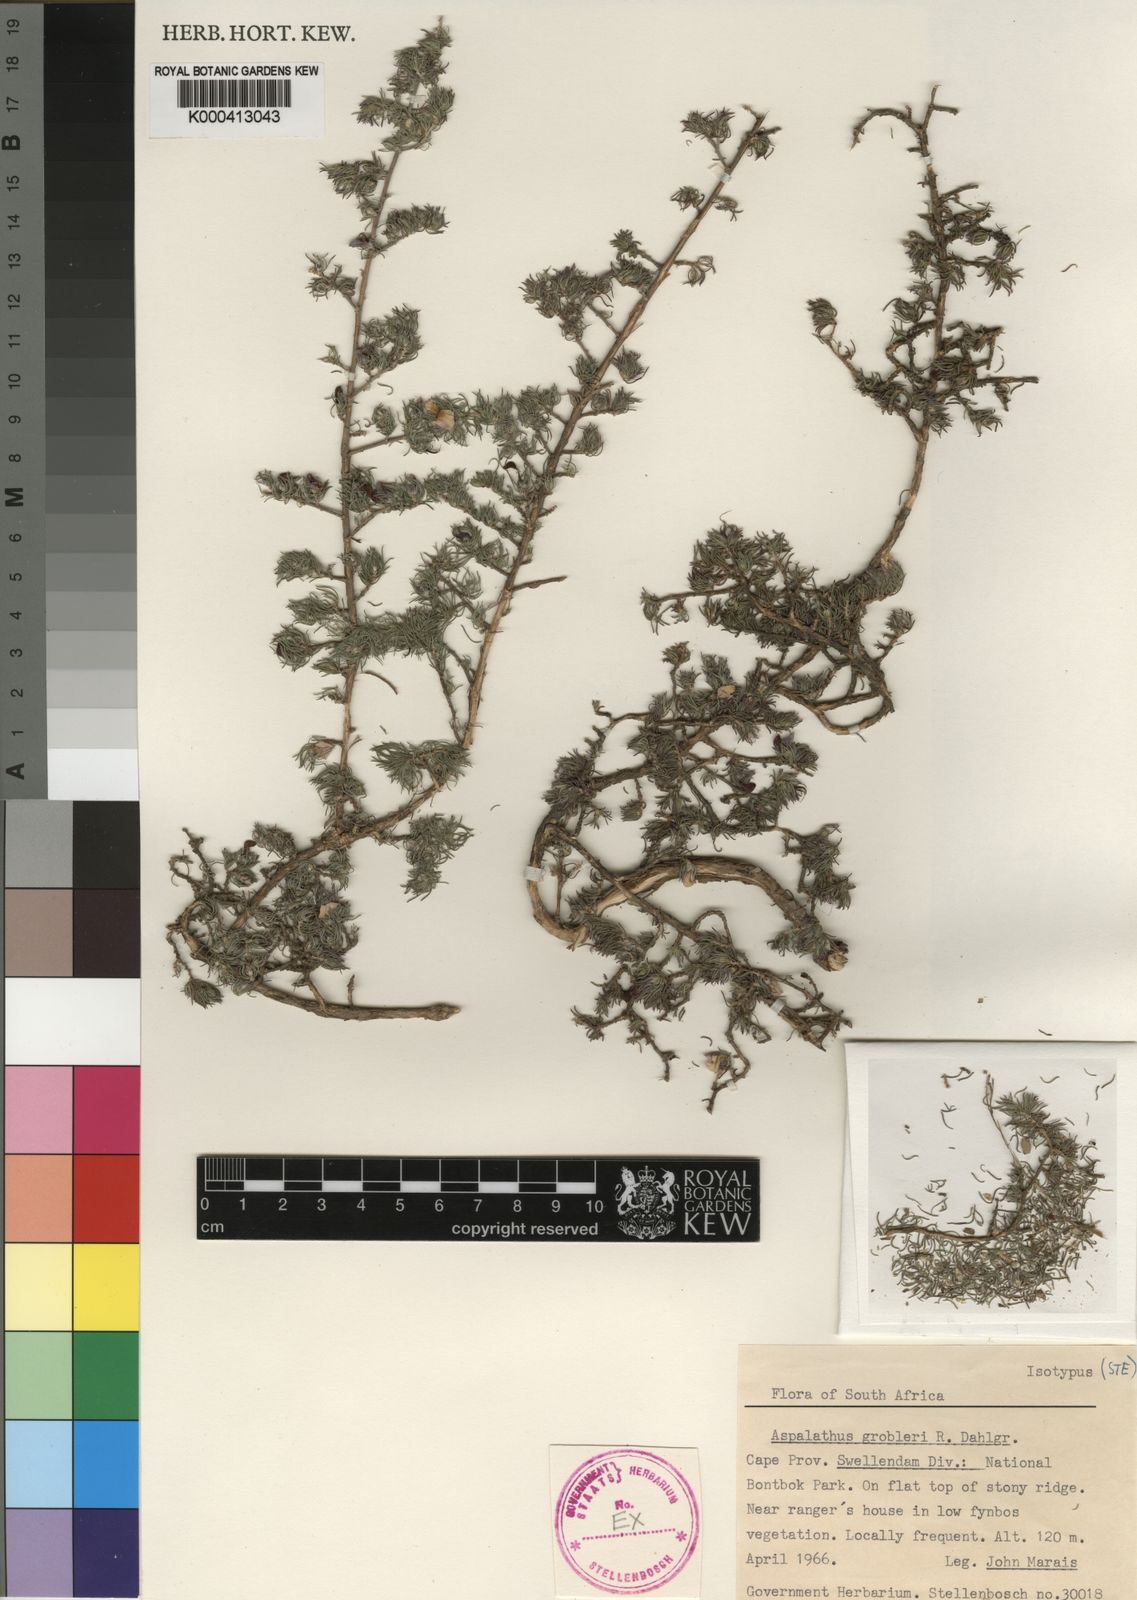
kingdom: Plantae
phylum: Tracheophyta
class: Magnoliopsida
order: Fabales
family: Fabaceae
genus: Aspalathus
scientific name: Aspalathus grobleri
